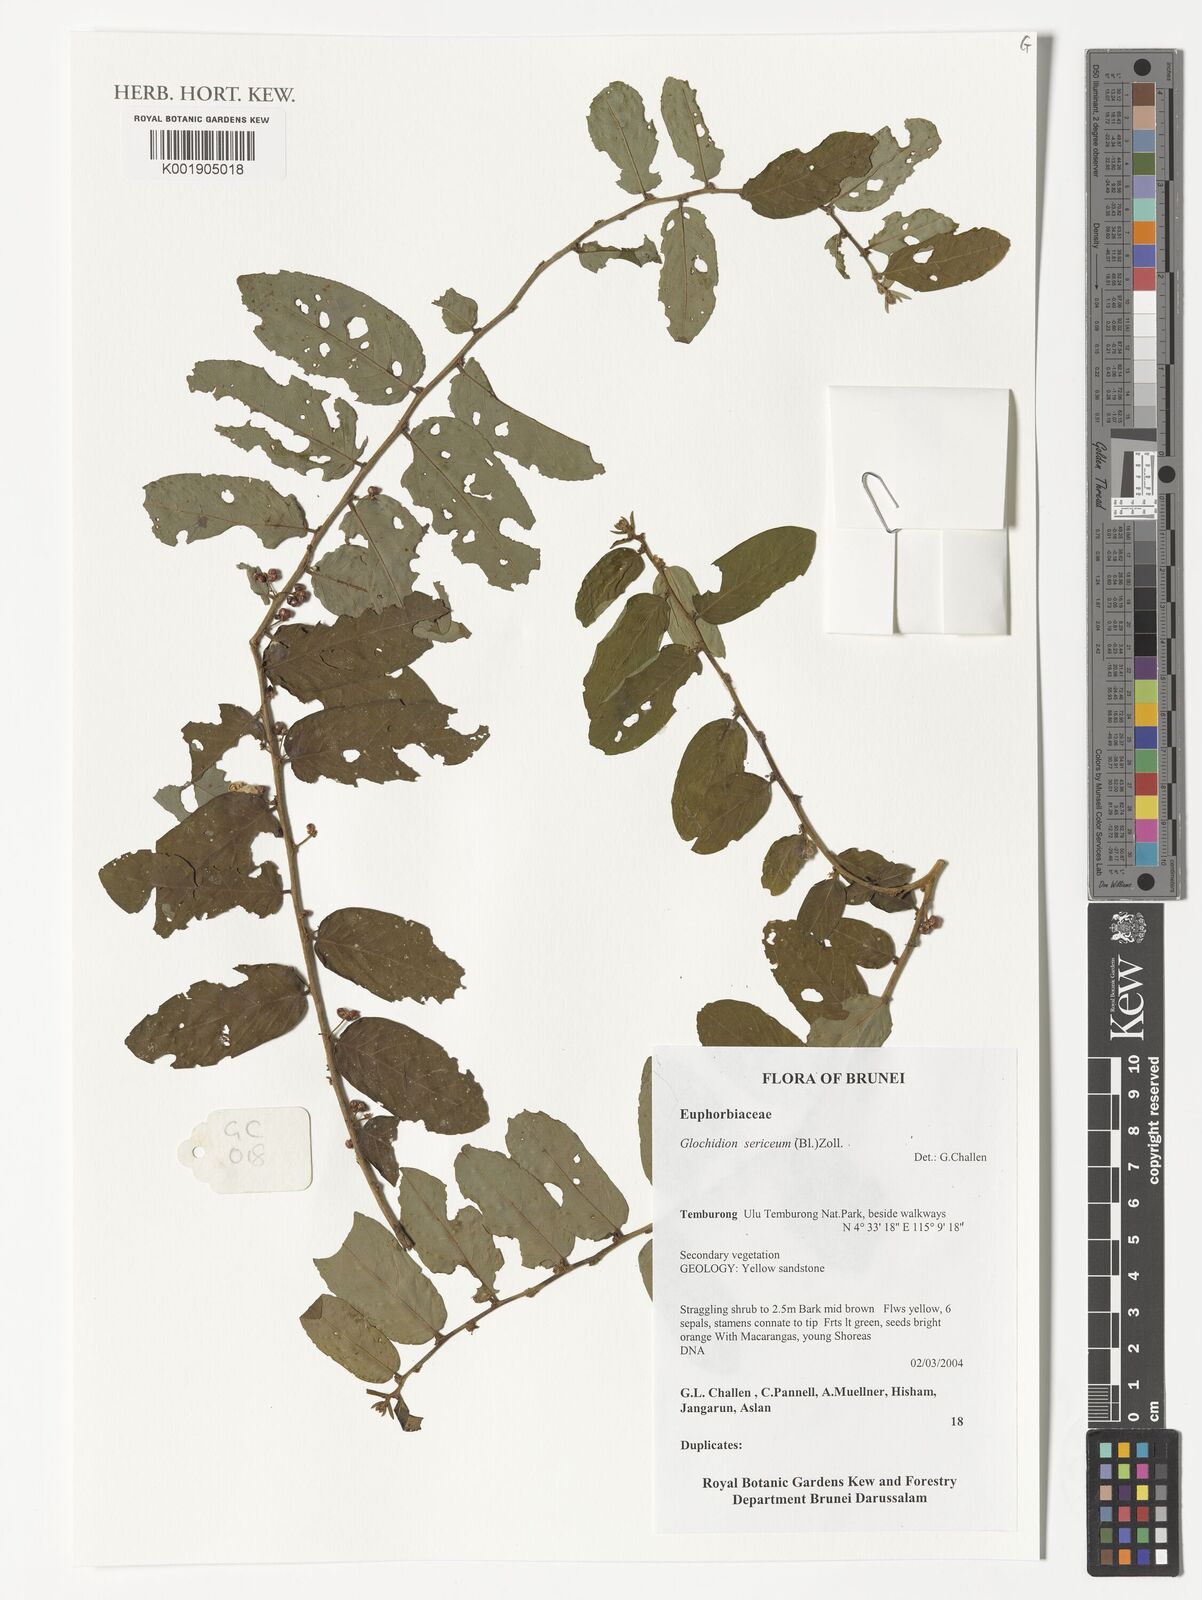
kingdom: Plantae
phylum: Tracheophyta
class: Magnoliopsida
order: Malpighiales
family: Phyllanthaceae
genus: Glochidion
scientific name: Glochidion sericeum
